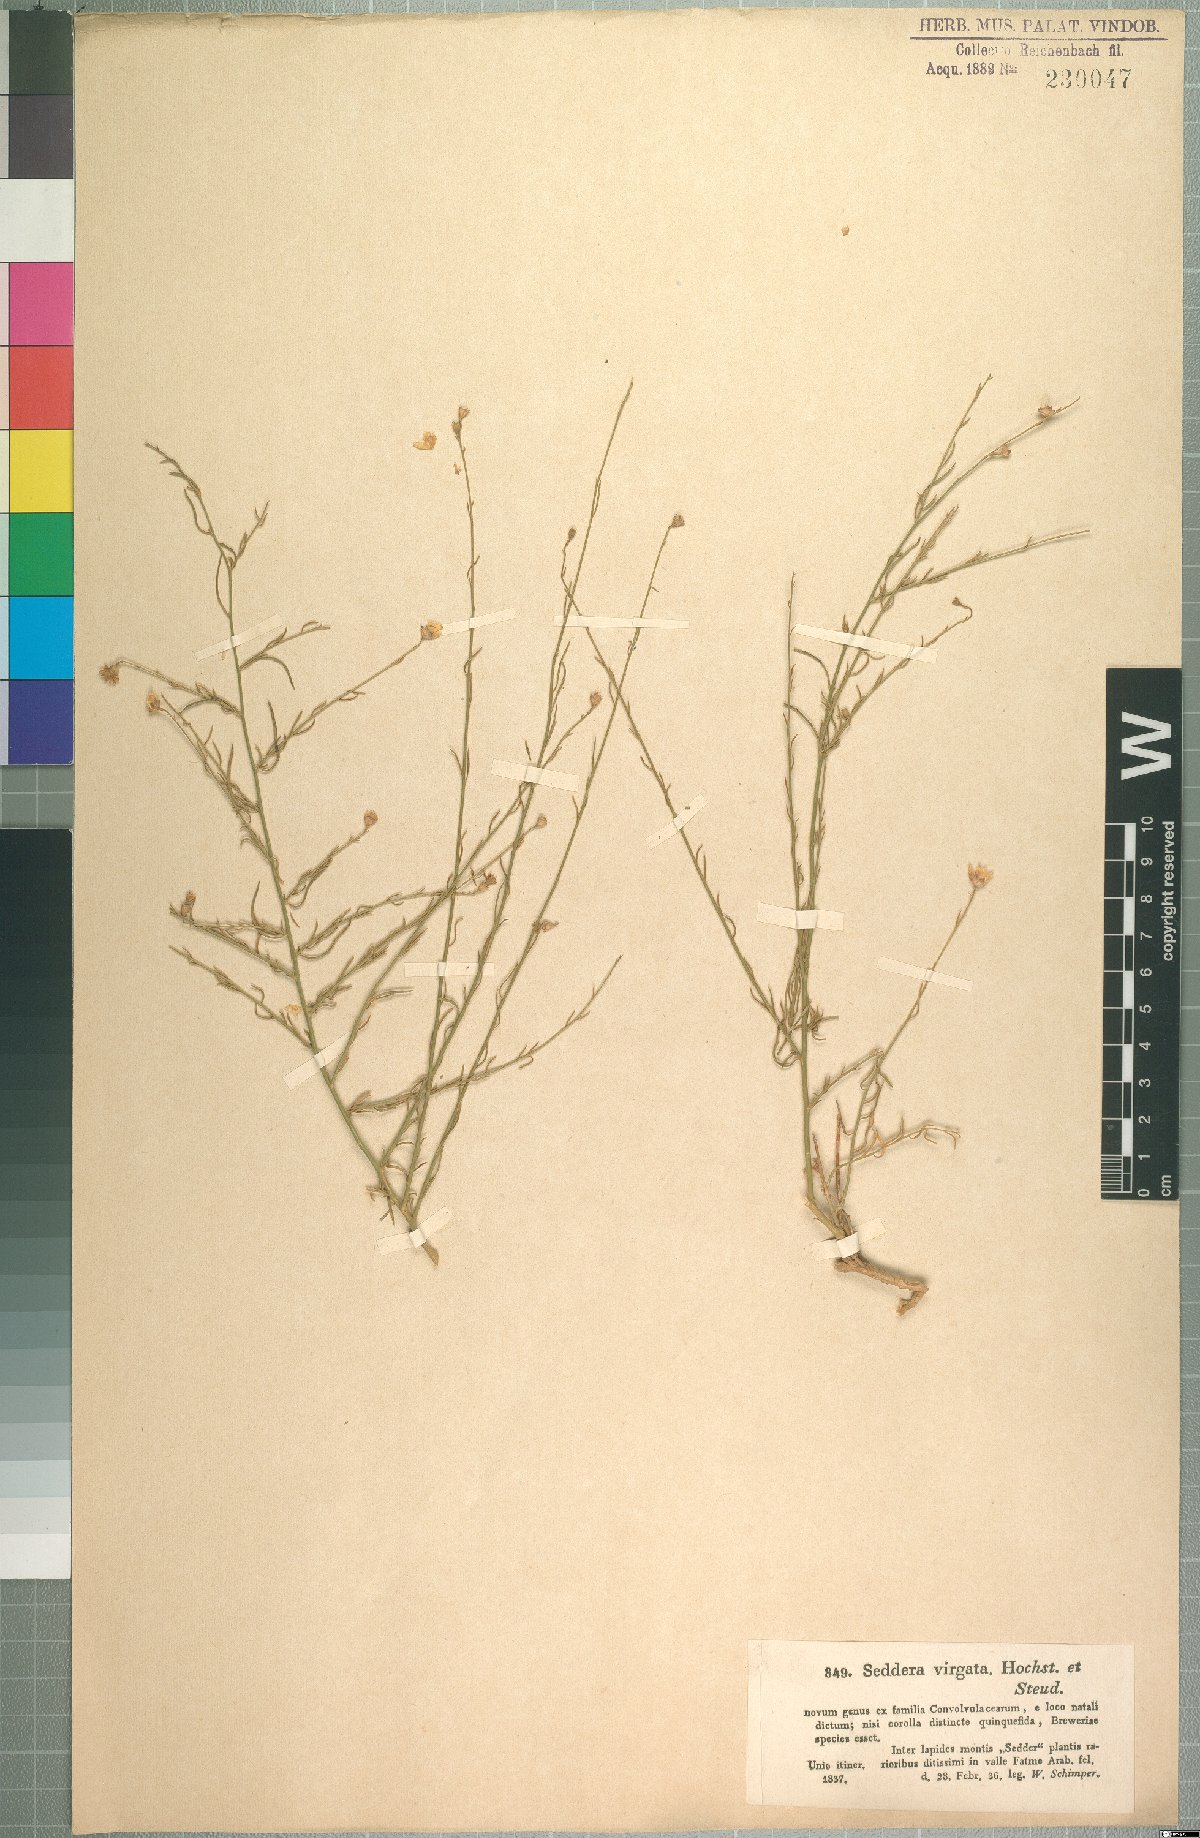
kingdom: Plantae
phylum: Tracheophyta
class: Magnoliopsida
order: Solanales
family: Convolvulaceae
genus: Seddera
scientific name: Seddera virgata
